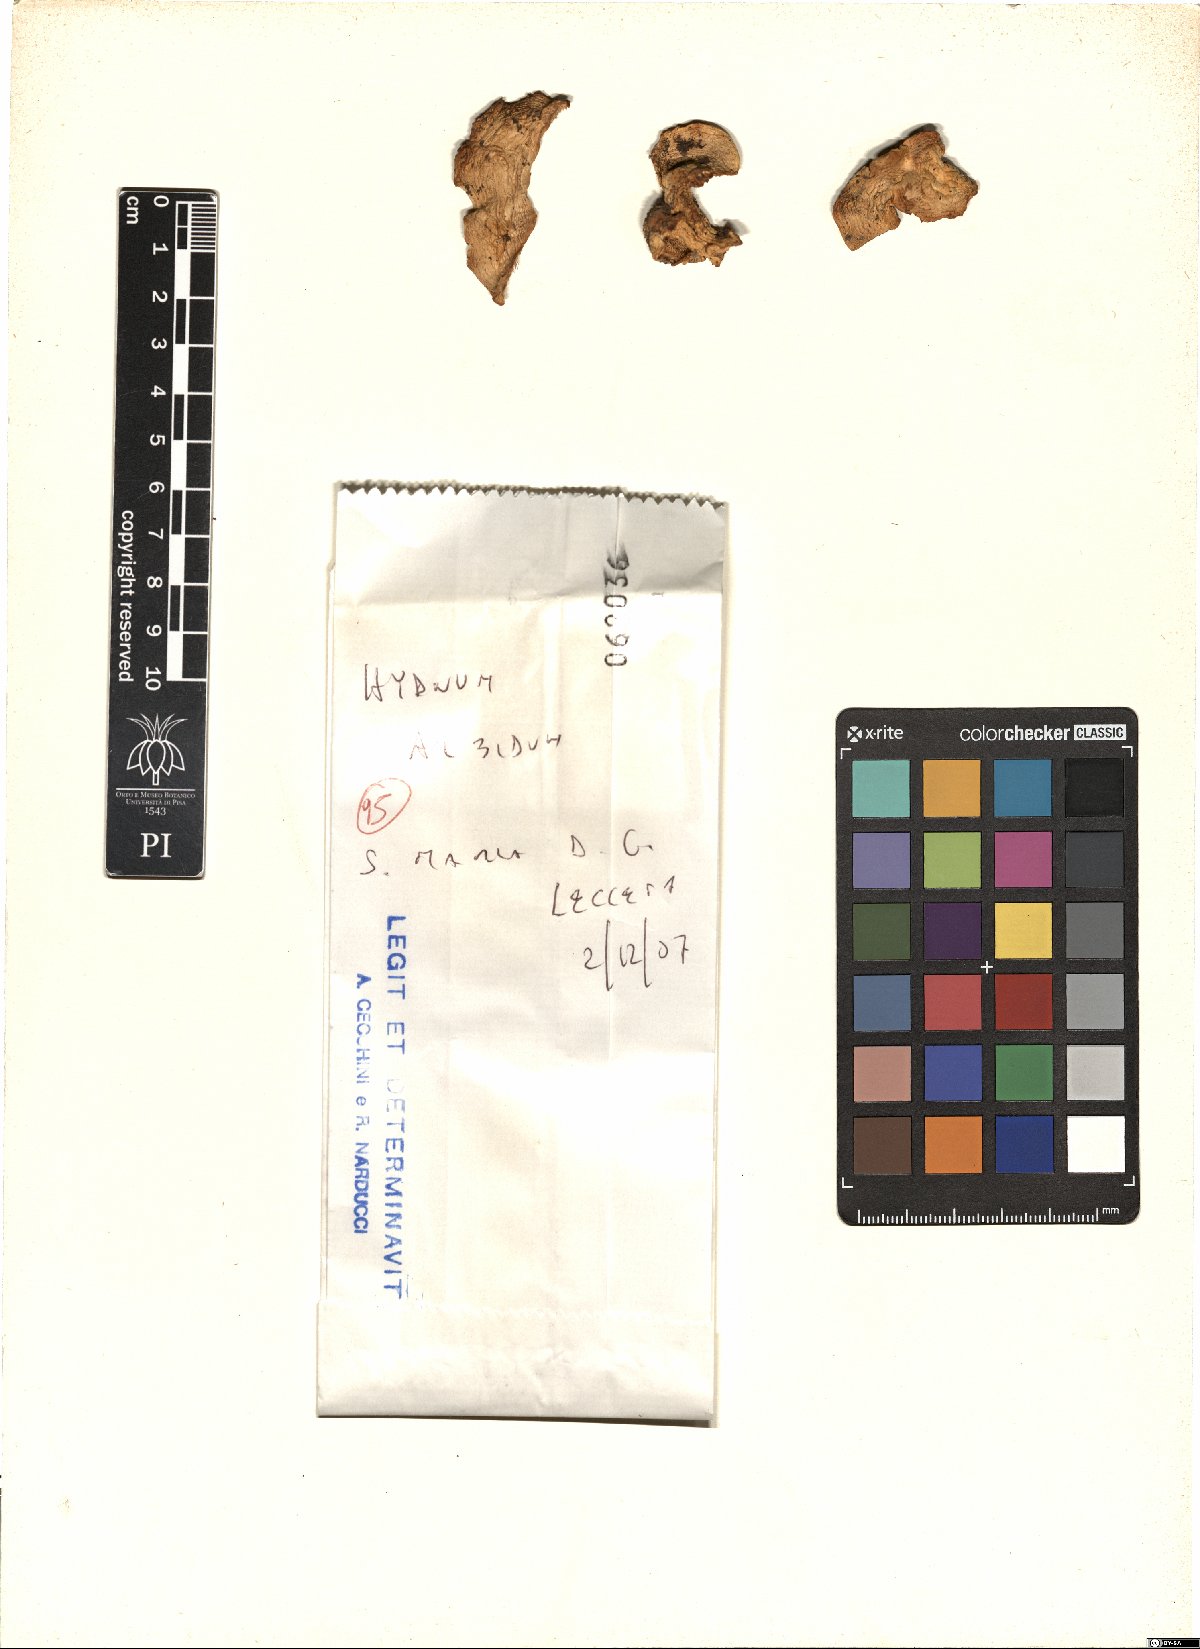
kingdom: Fungi
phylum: Basidiomycota
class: Agaricomycetes
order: Cantharellales
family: Hydnaceae
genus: Hydnum
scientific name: Hydnum albidum
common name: White hedgehog
